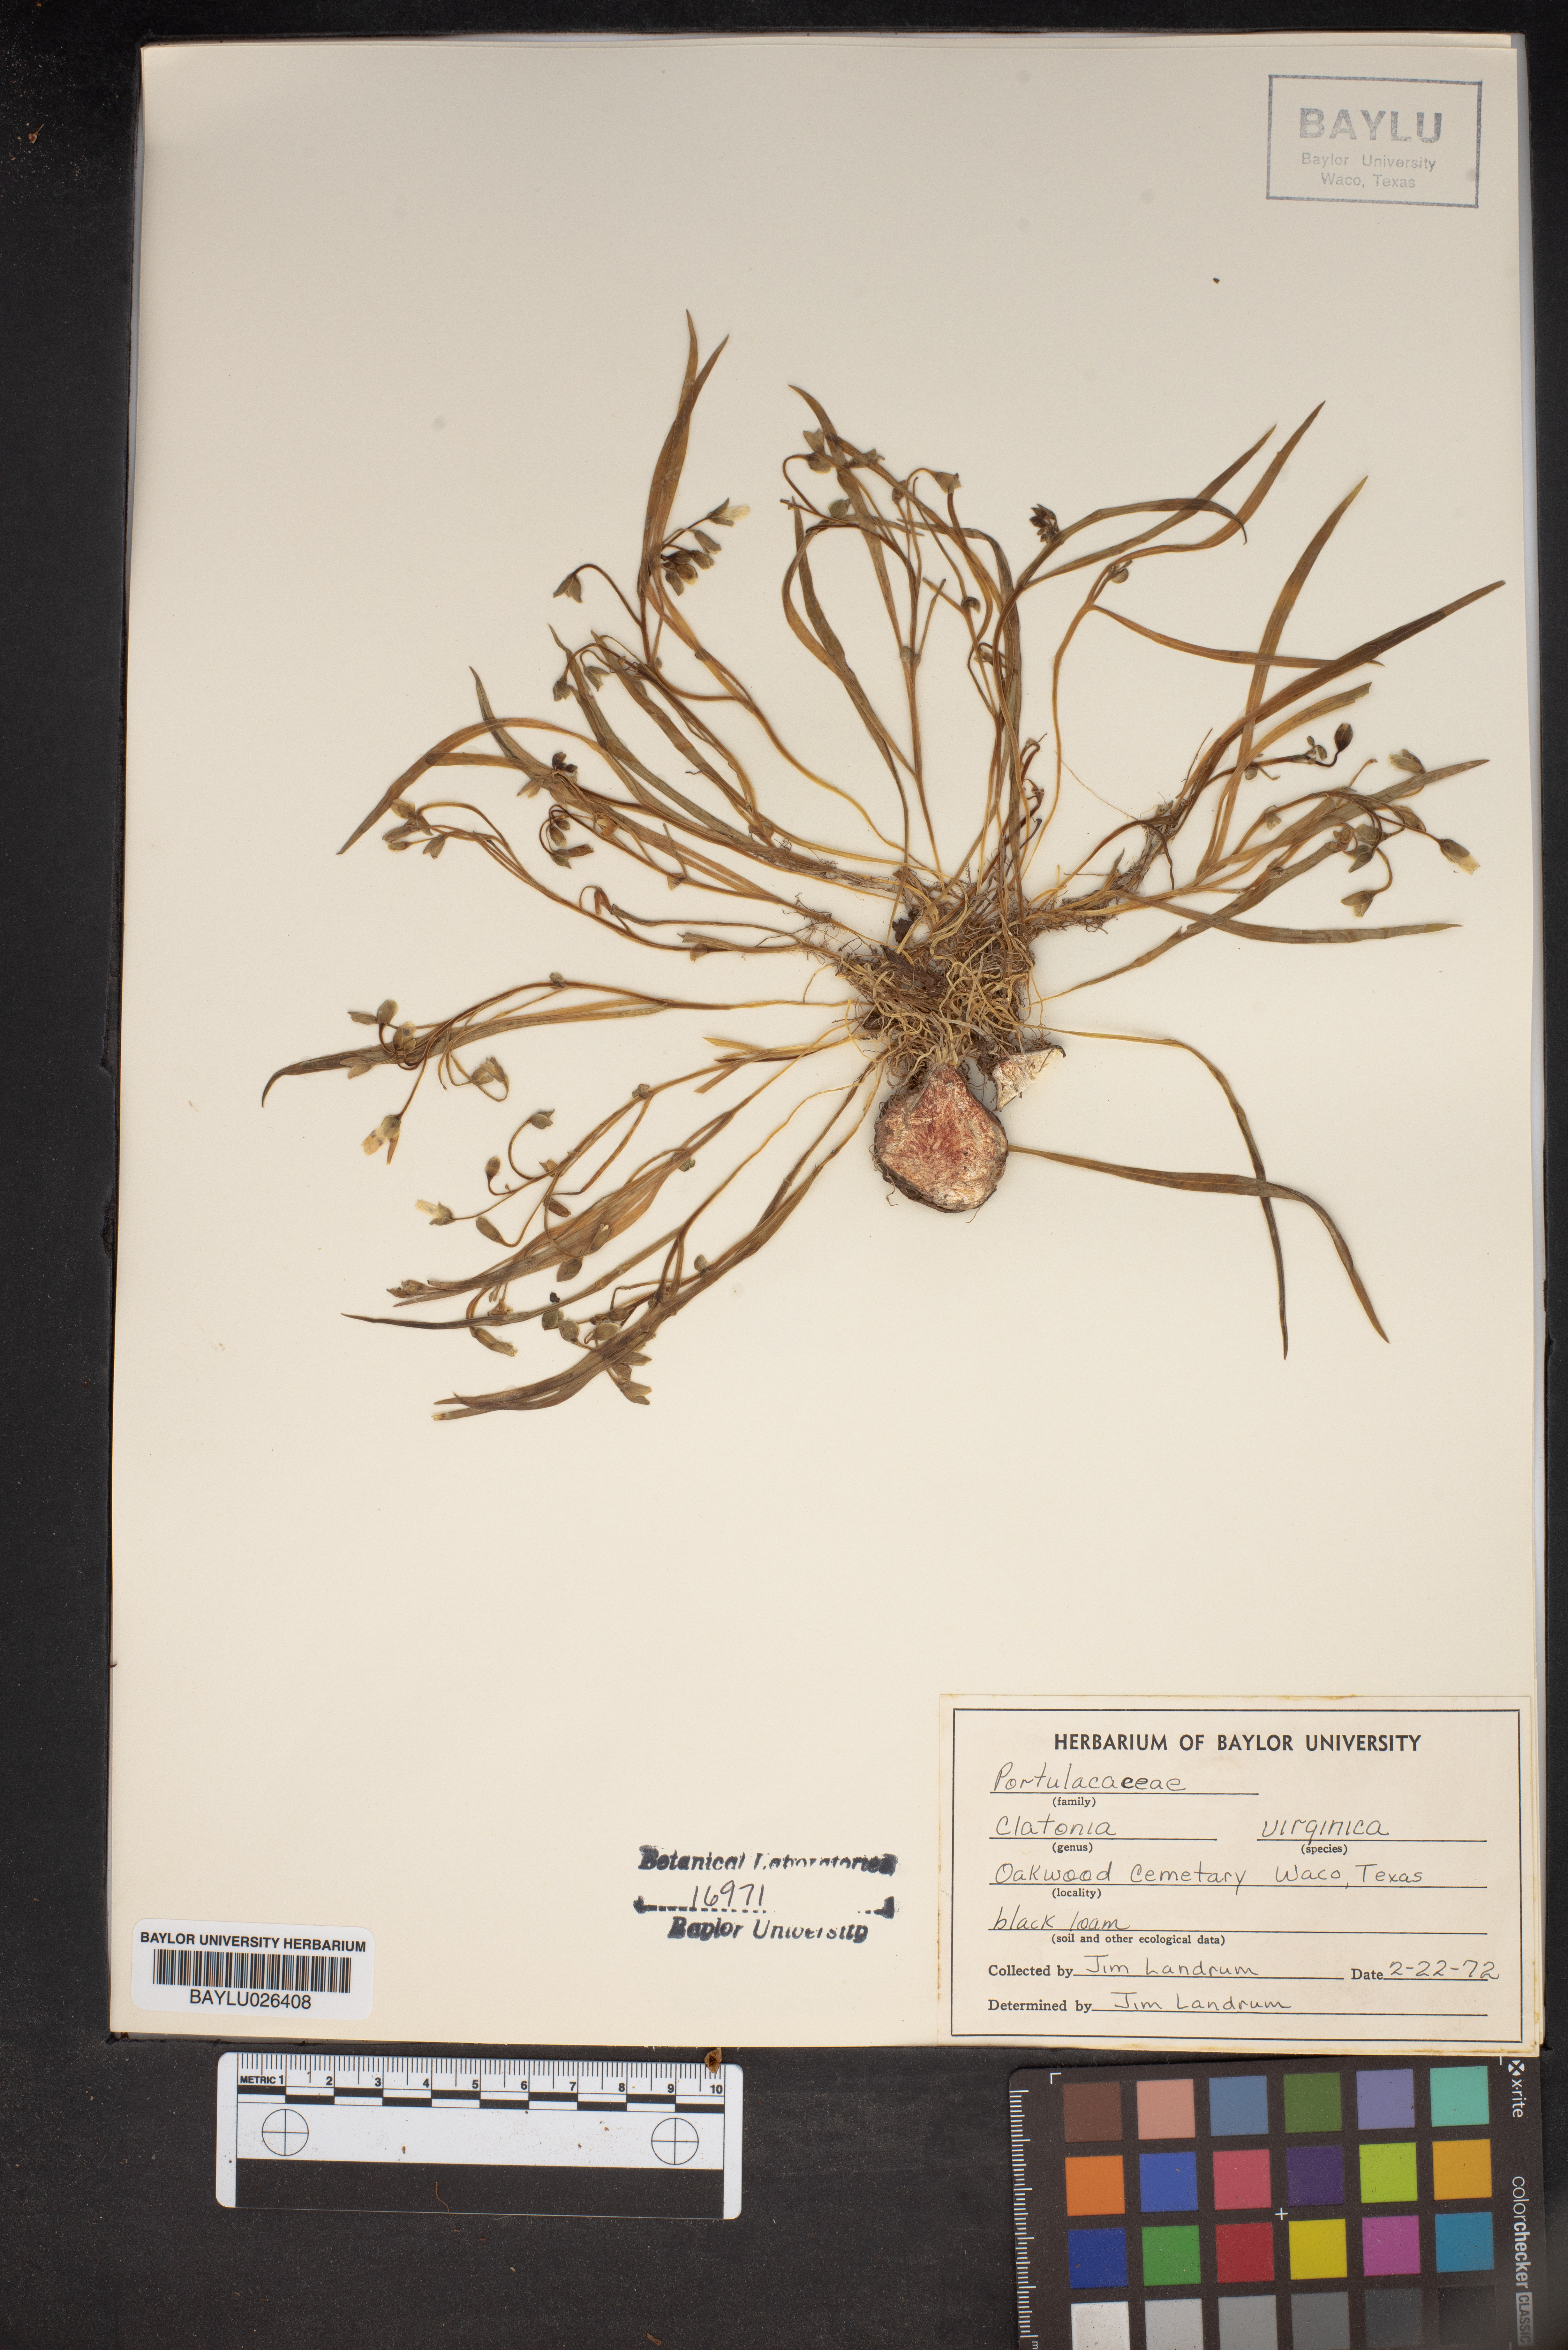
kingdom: Plantae
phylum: Tracheophyta
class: Magnoliopsida
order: Caryophyllales
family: Montiaceae
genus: Claytonia
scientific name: Claytonia virginica
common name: Virginia springbeauty
